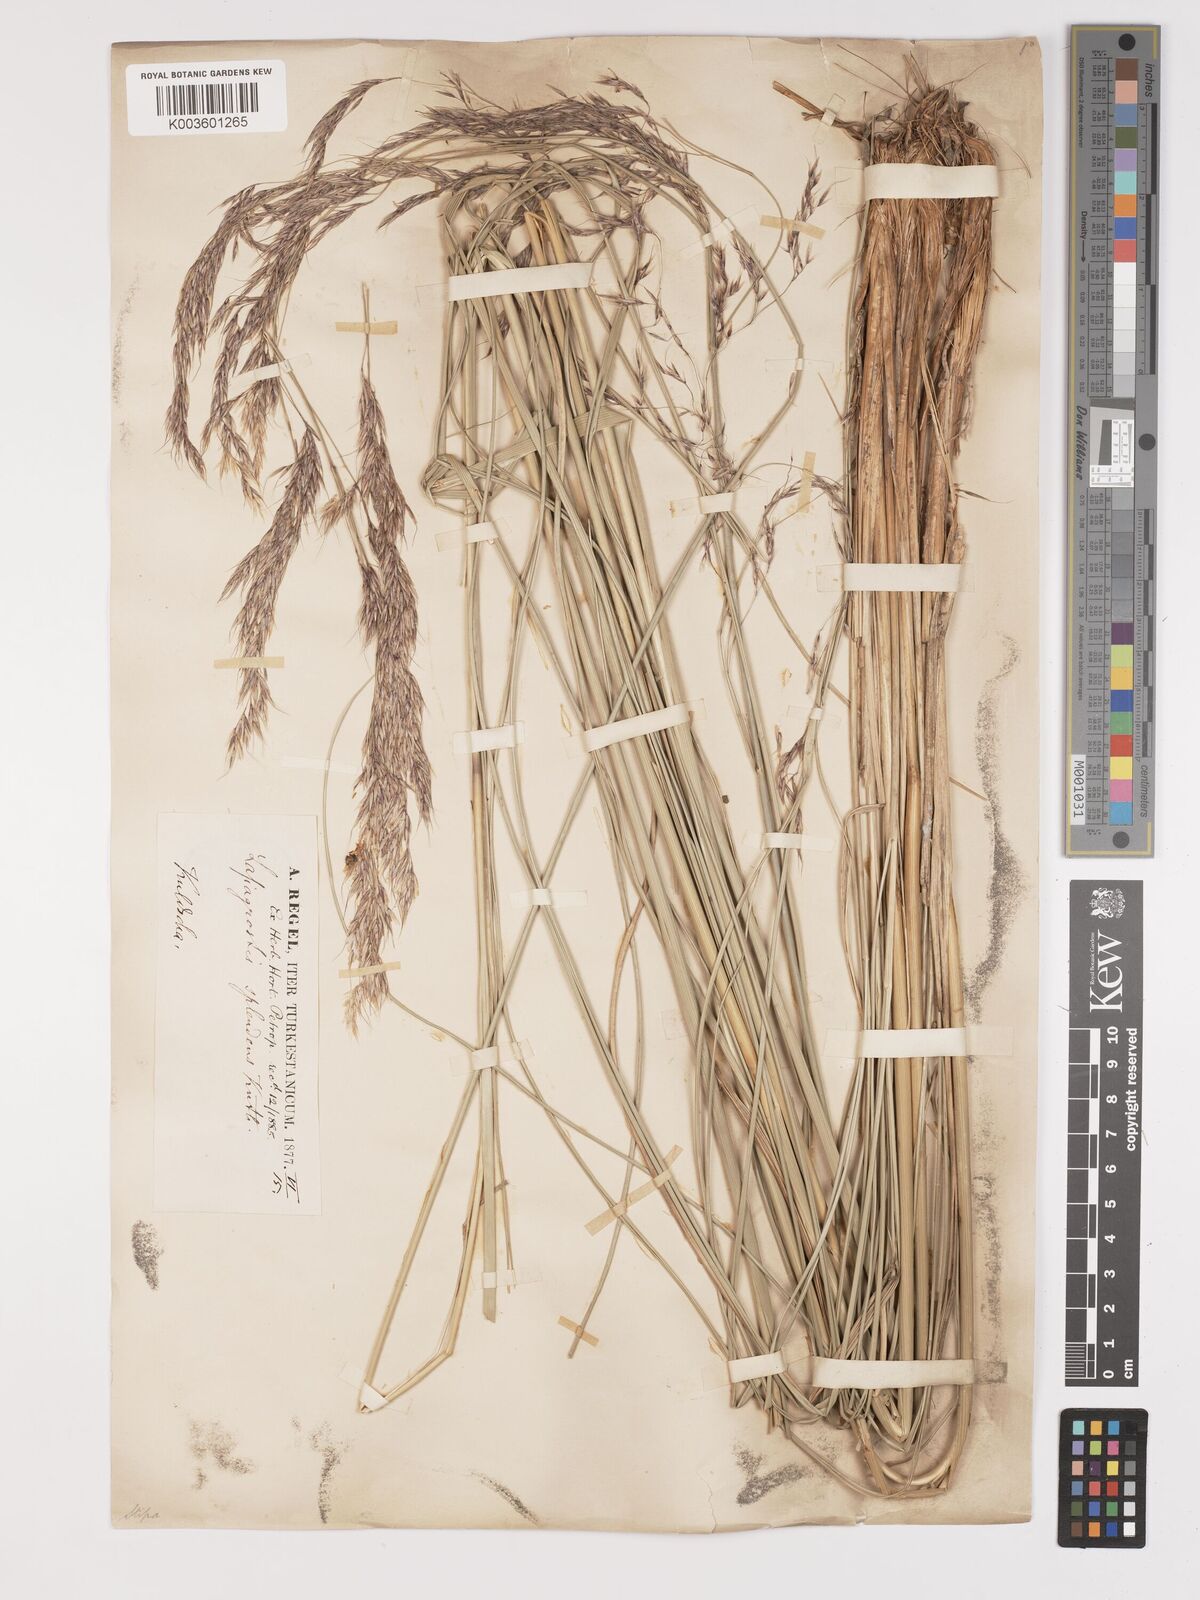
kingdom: Plantae
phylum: Tracheophyta
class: Liliopsida
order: Poales
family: Poaceae
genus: Neotrinia
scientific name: Neotrinia splendens
